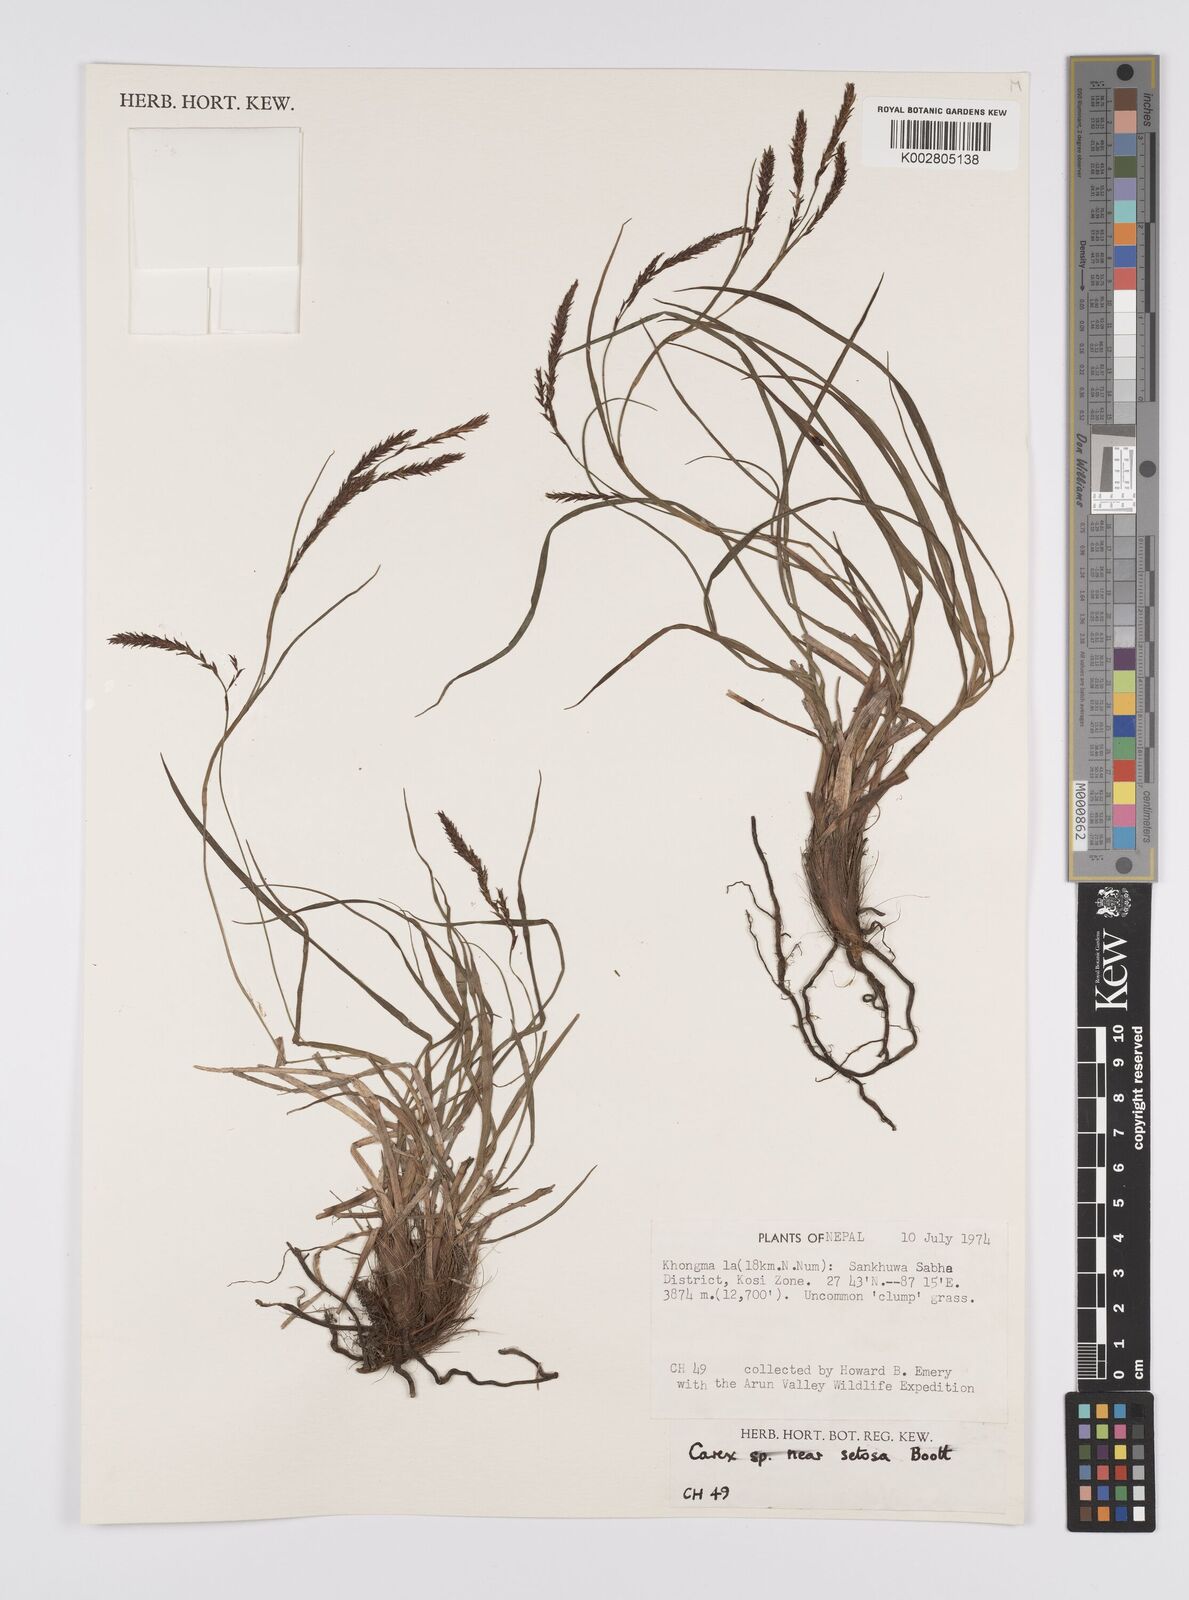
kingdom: Plantae
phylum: Tracheophyta
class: Liliopsida
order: Poales
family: Cyperaceae
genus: Carex
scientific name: Carex setosa
